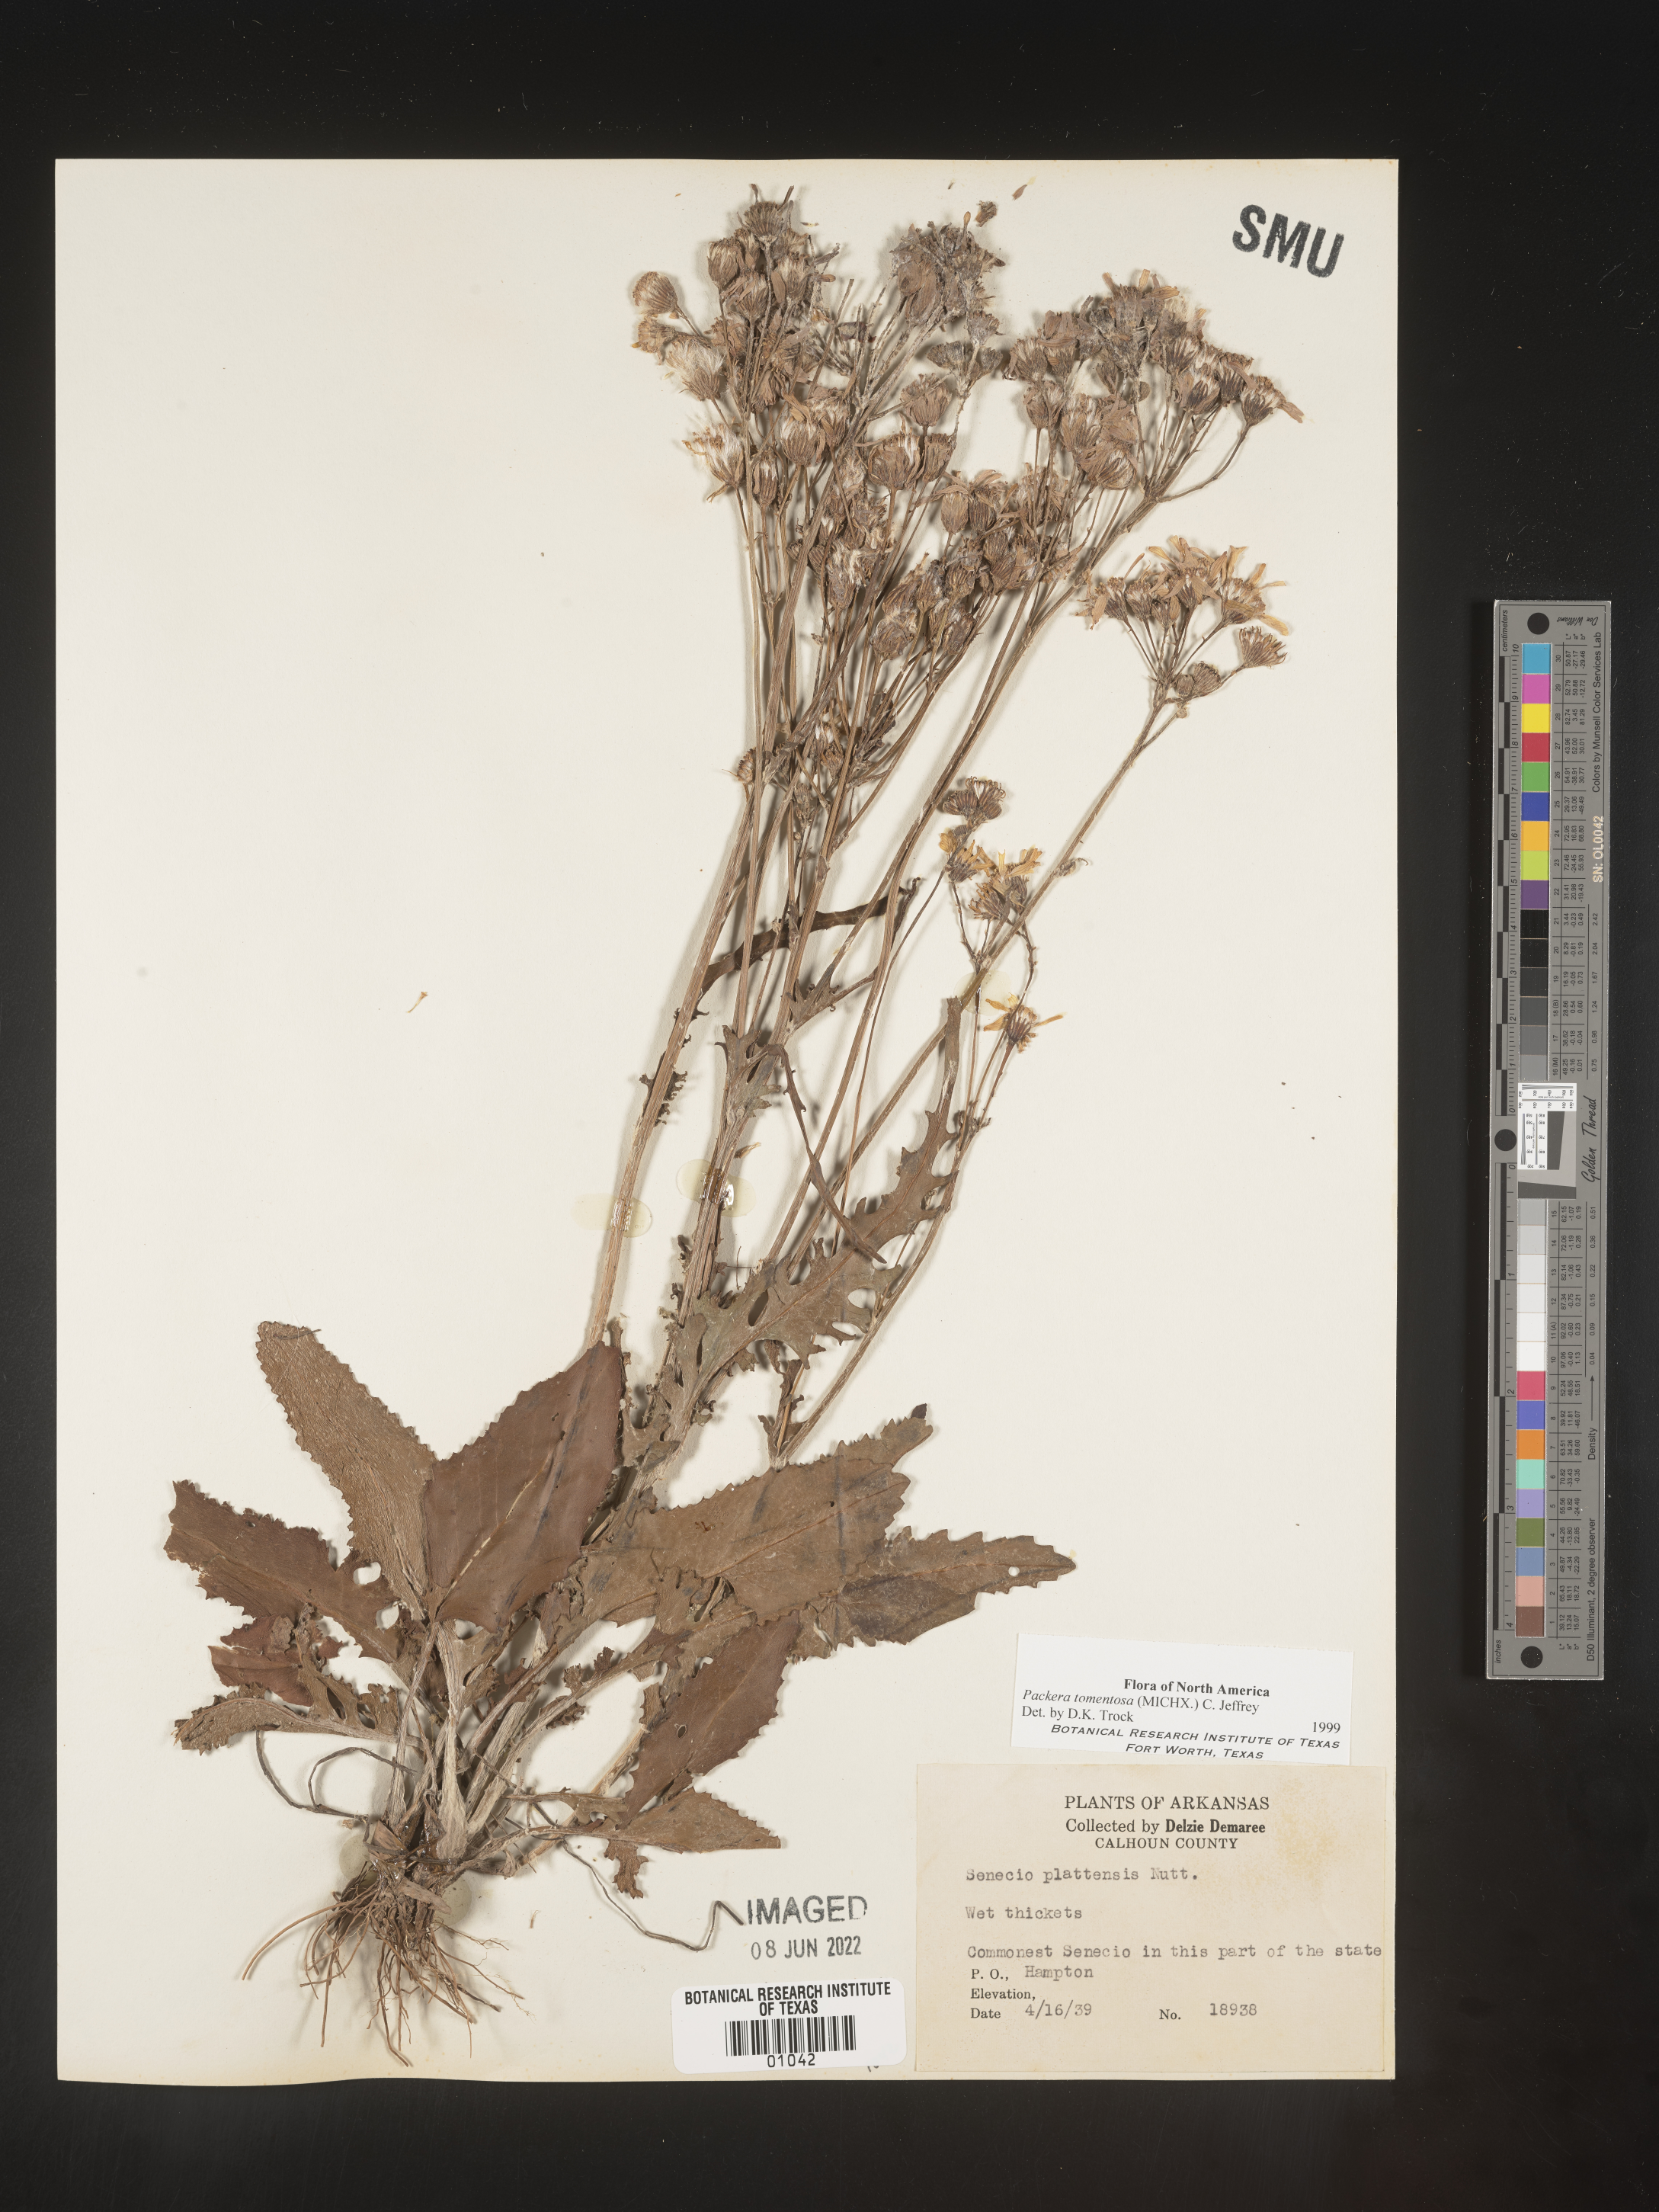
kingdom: Plantae
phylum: Tracheophyta
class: Magnoliopsida
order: Asterales
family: Asteraceae
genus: Packera
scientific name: Packera dubia
